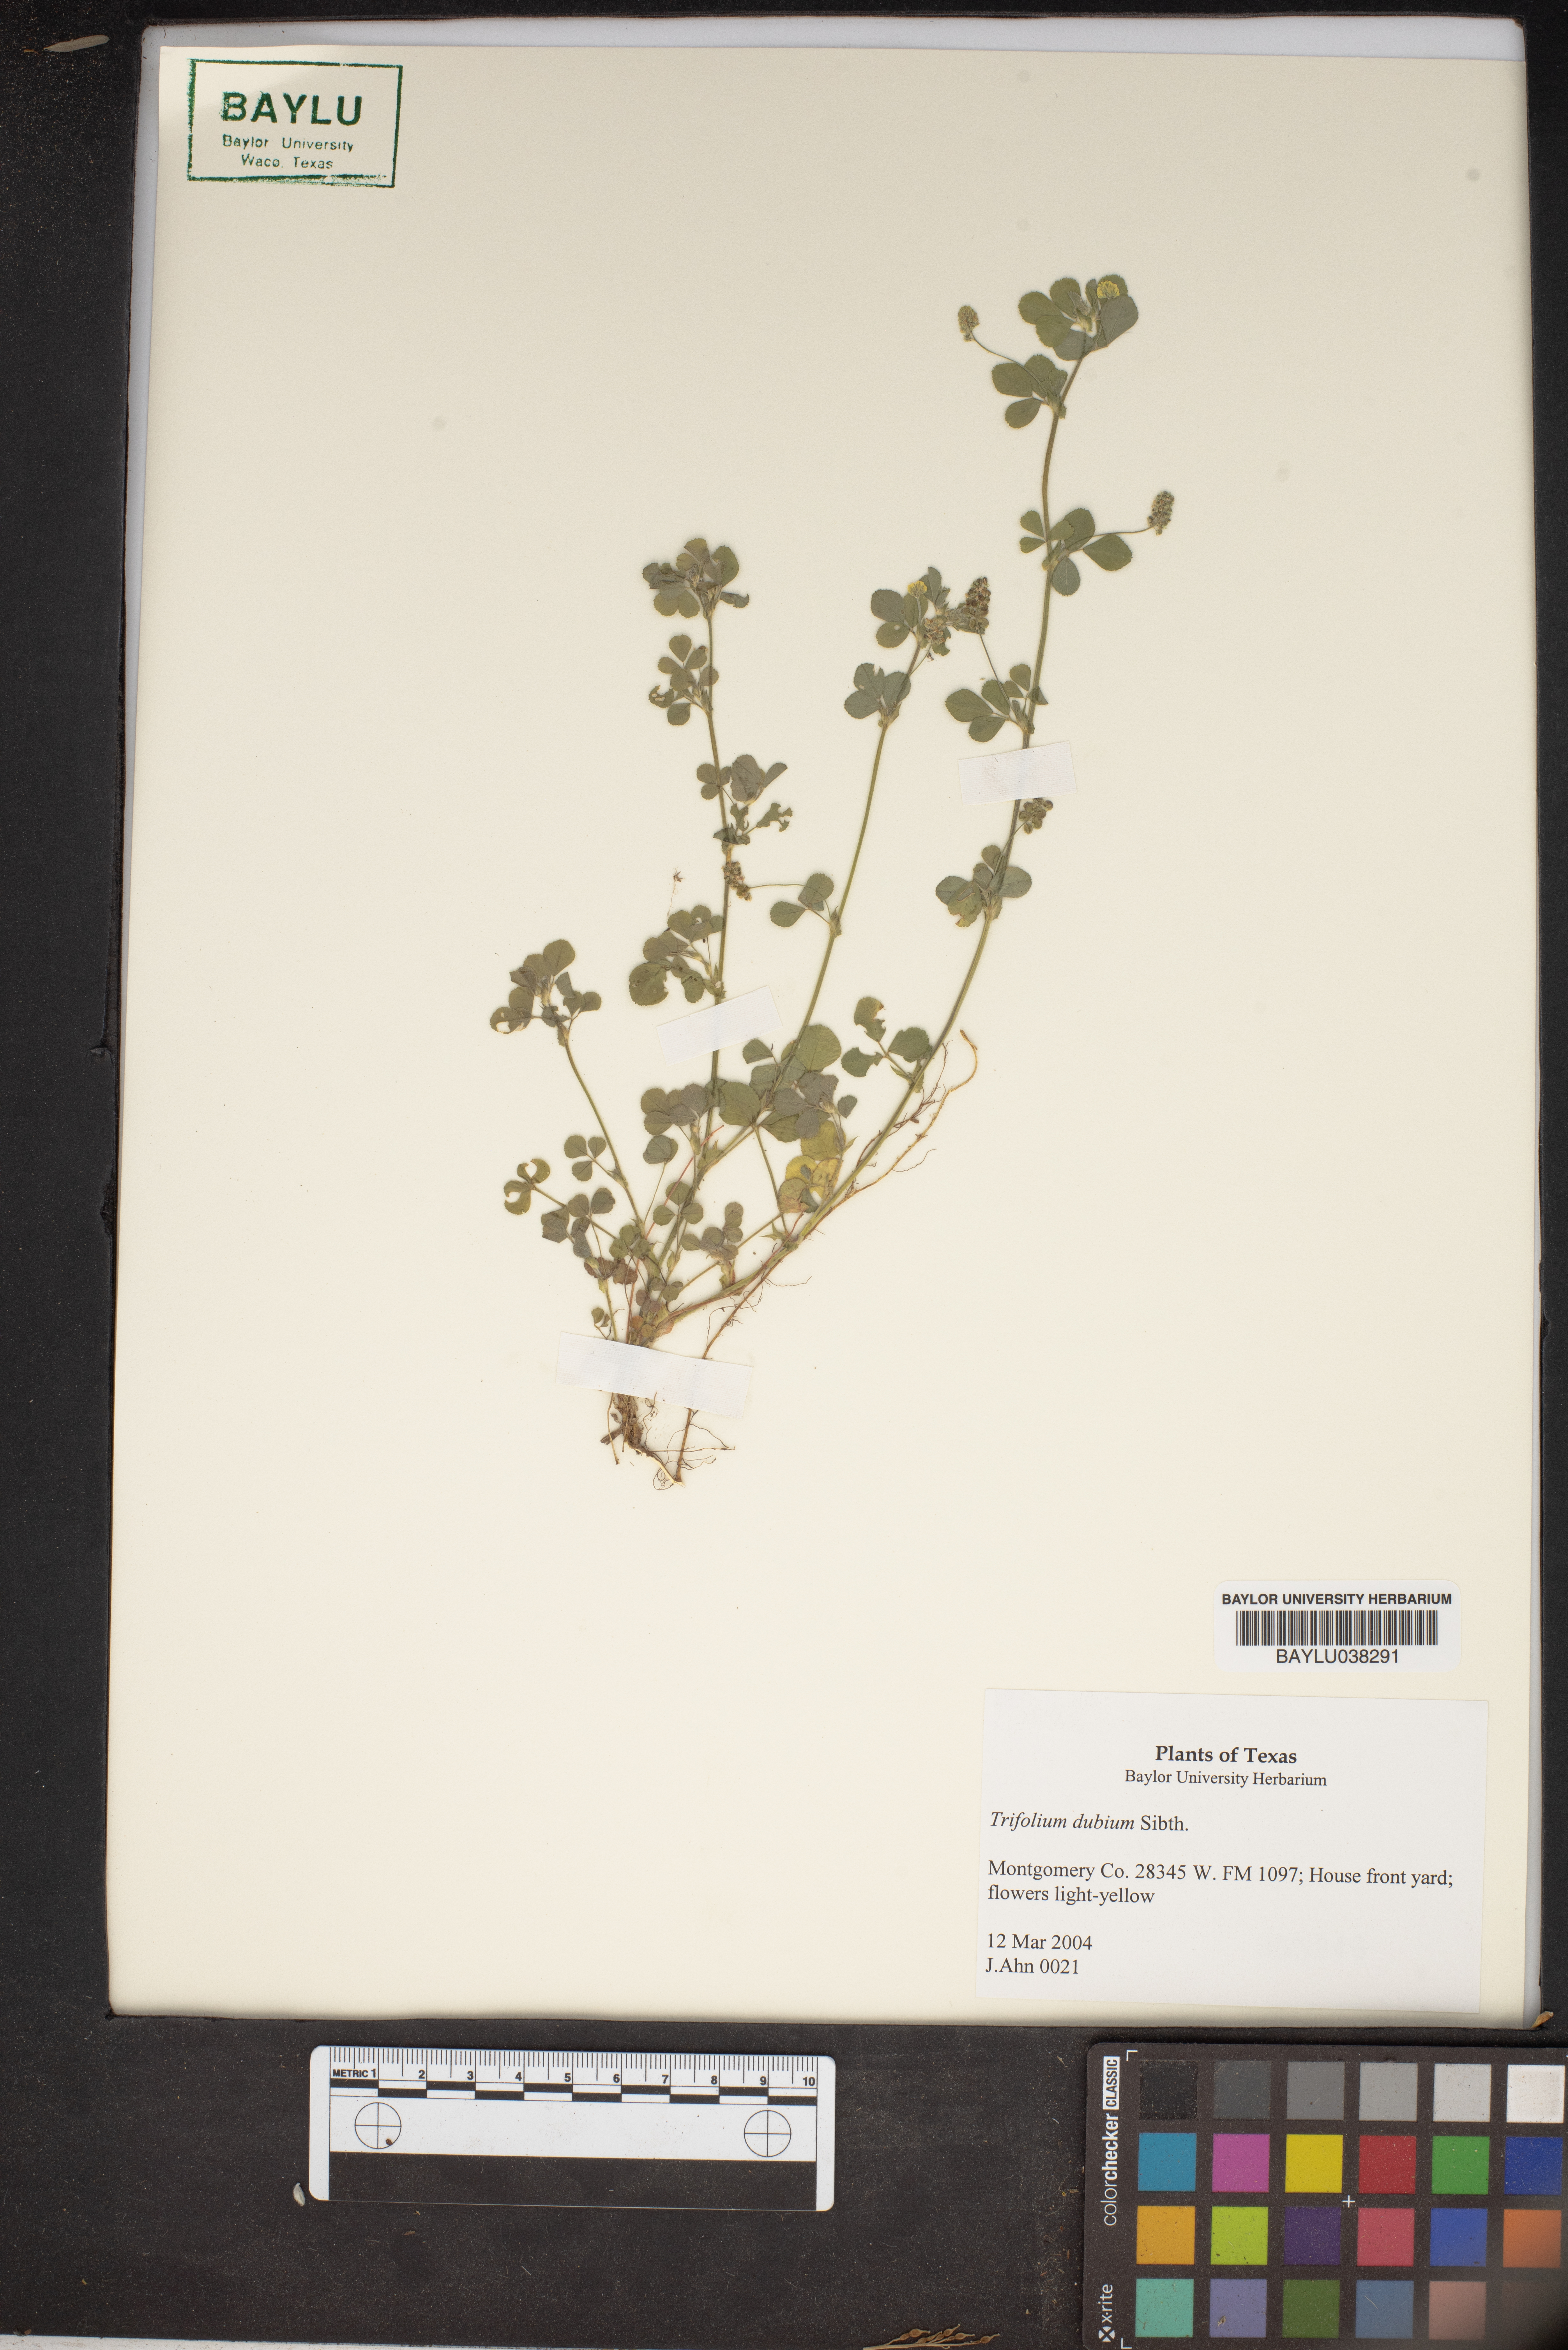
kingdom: Plantae
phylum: Tracheophyta
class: Magnoliopsida
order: Fabales
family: Fabaceae
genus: Trifolium
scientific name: Trifolium dubium
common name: Suckling clover
